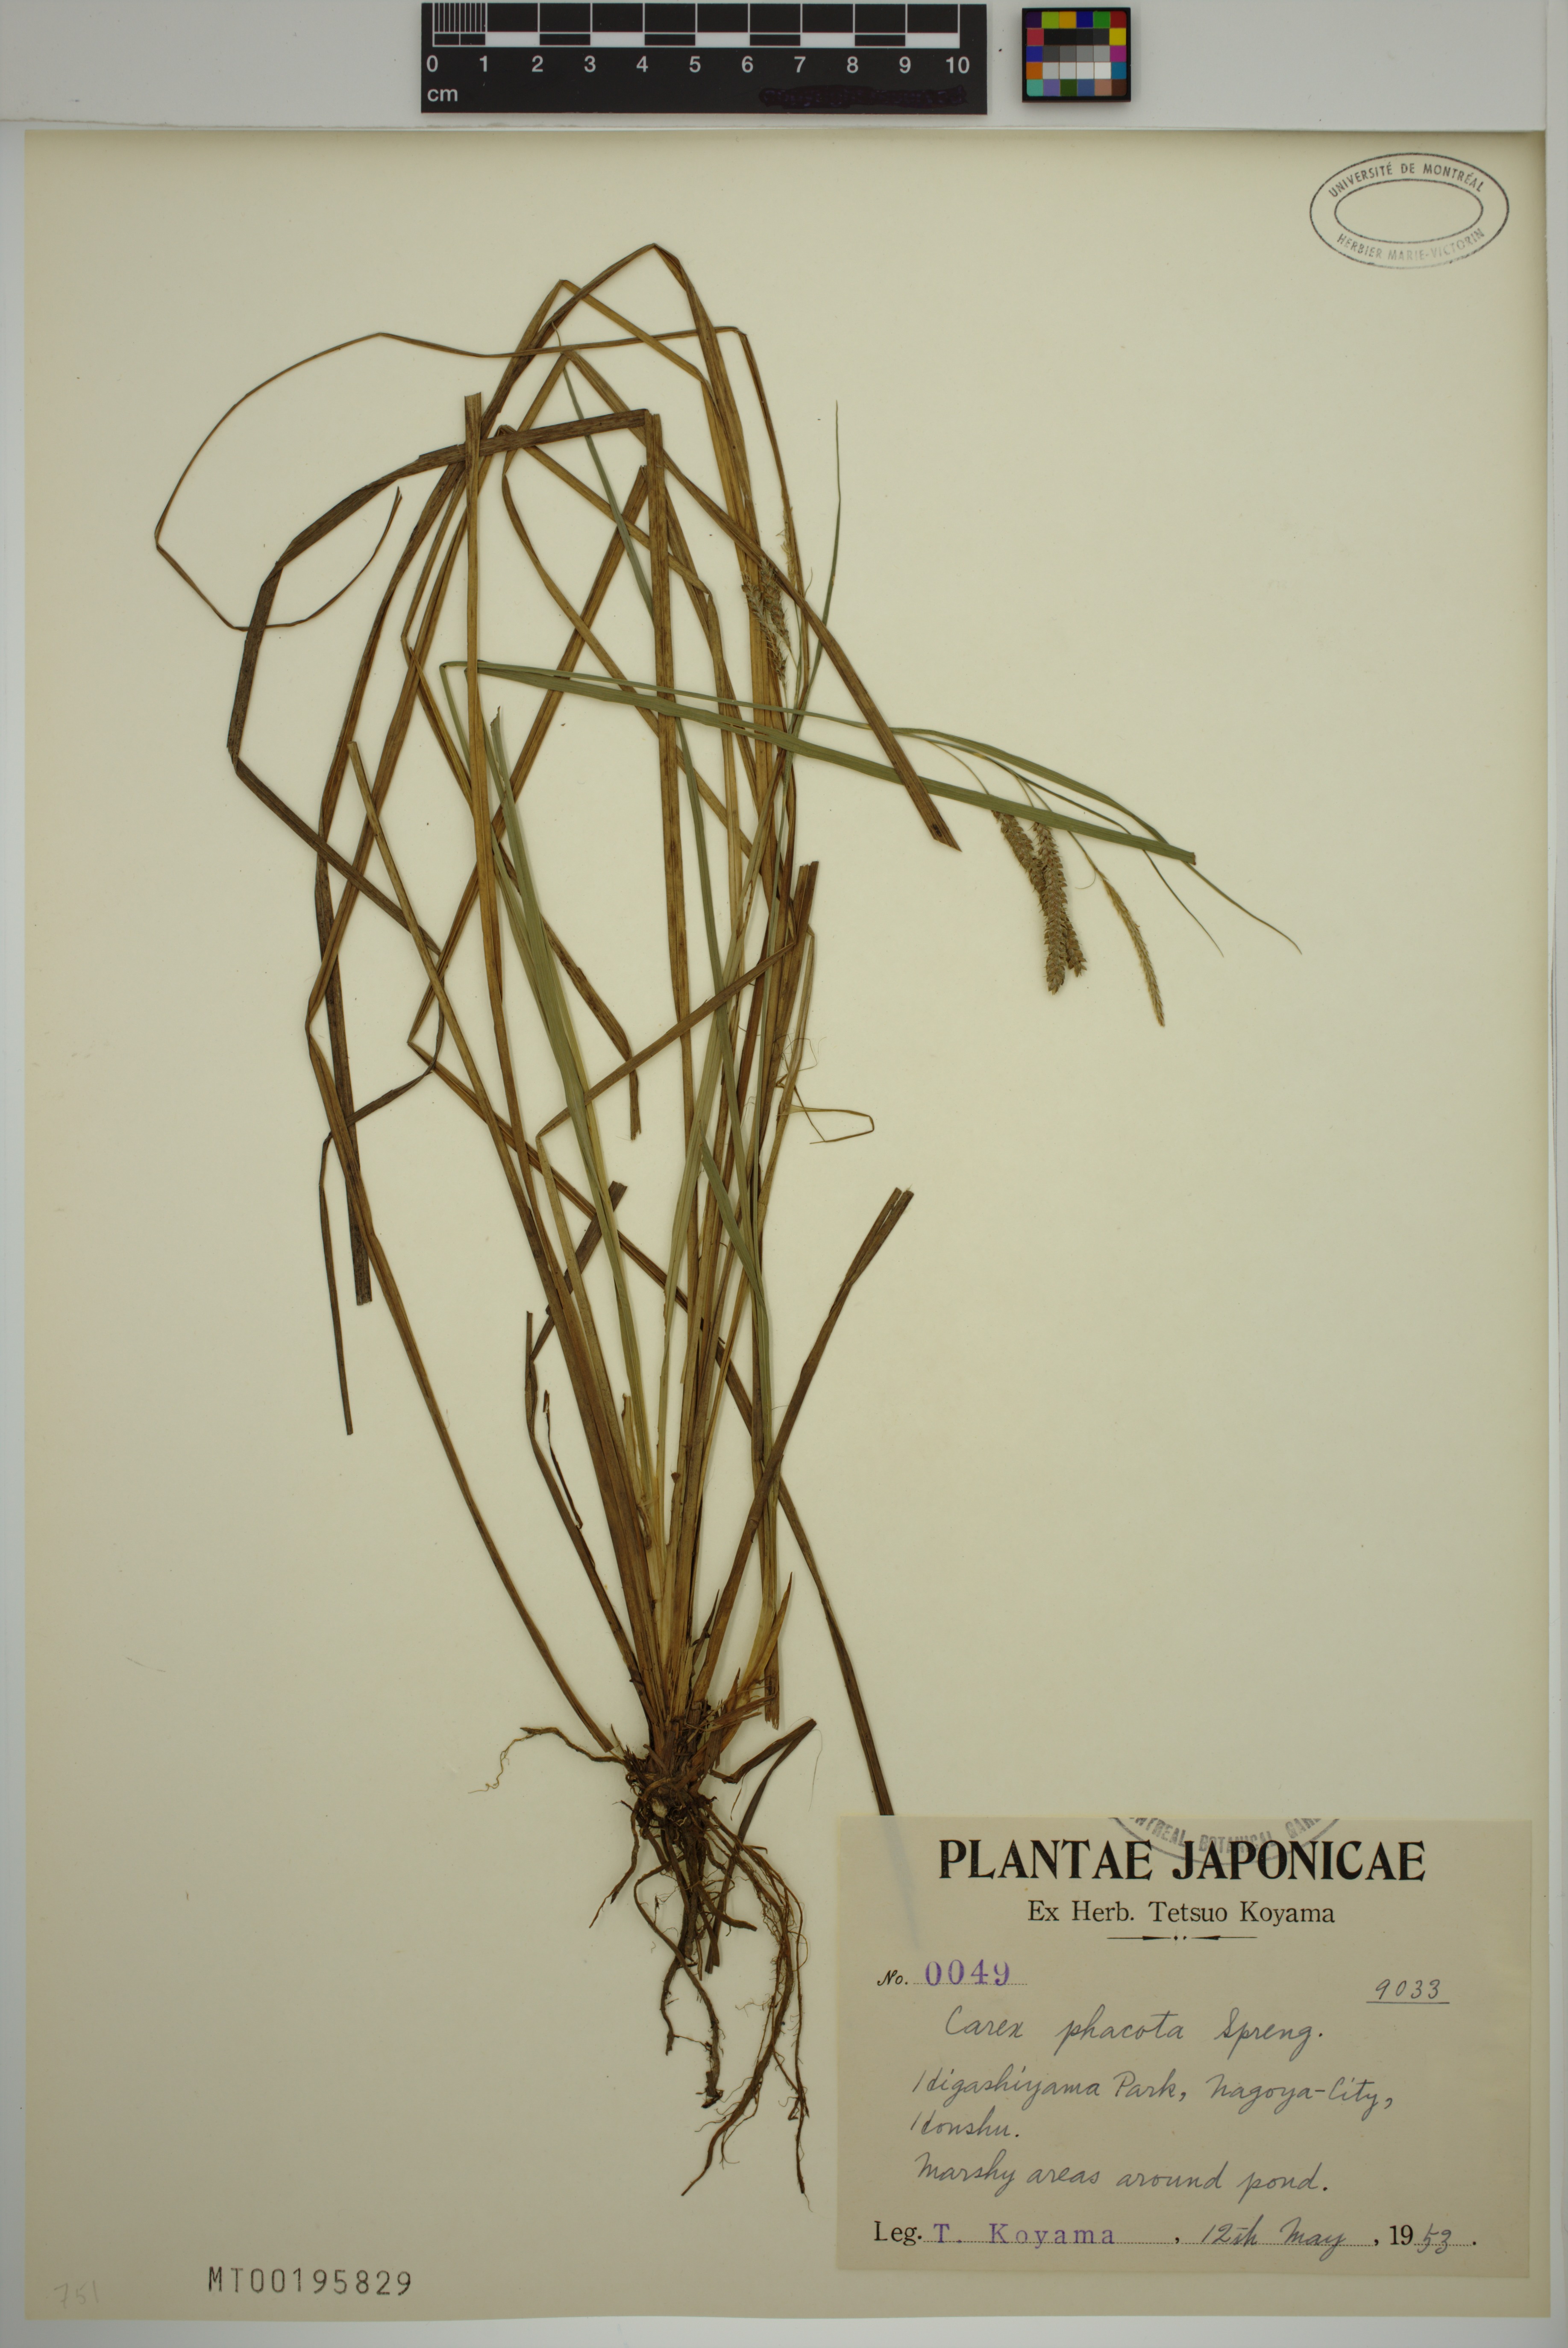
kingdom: Plantae
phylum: Tracheophyta
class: Liliopsida
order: Poales
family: Cyperaceae
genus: Carex
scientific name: Carex phacota
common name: Lakeshore sedge
